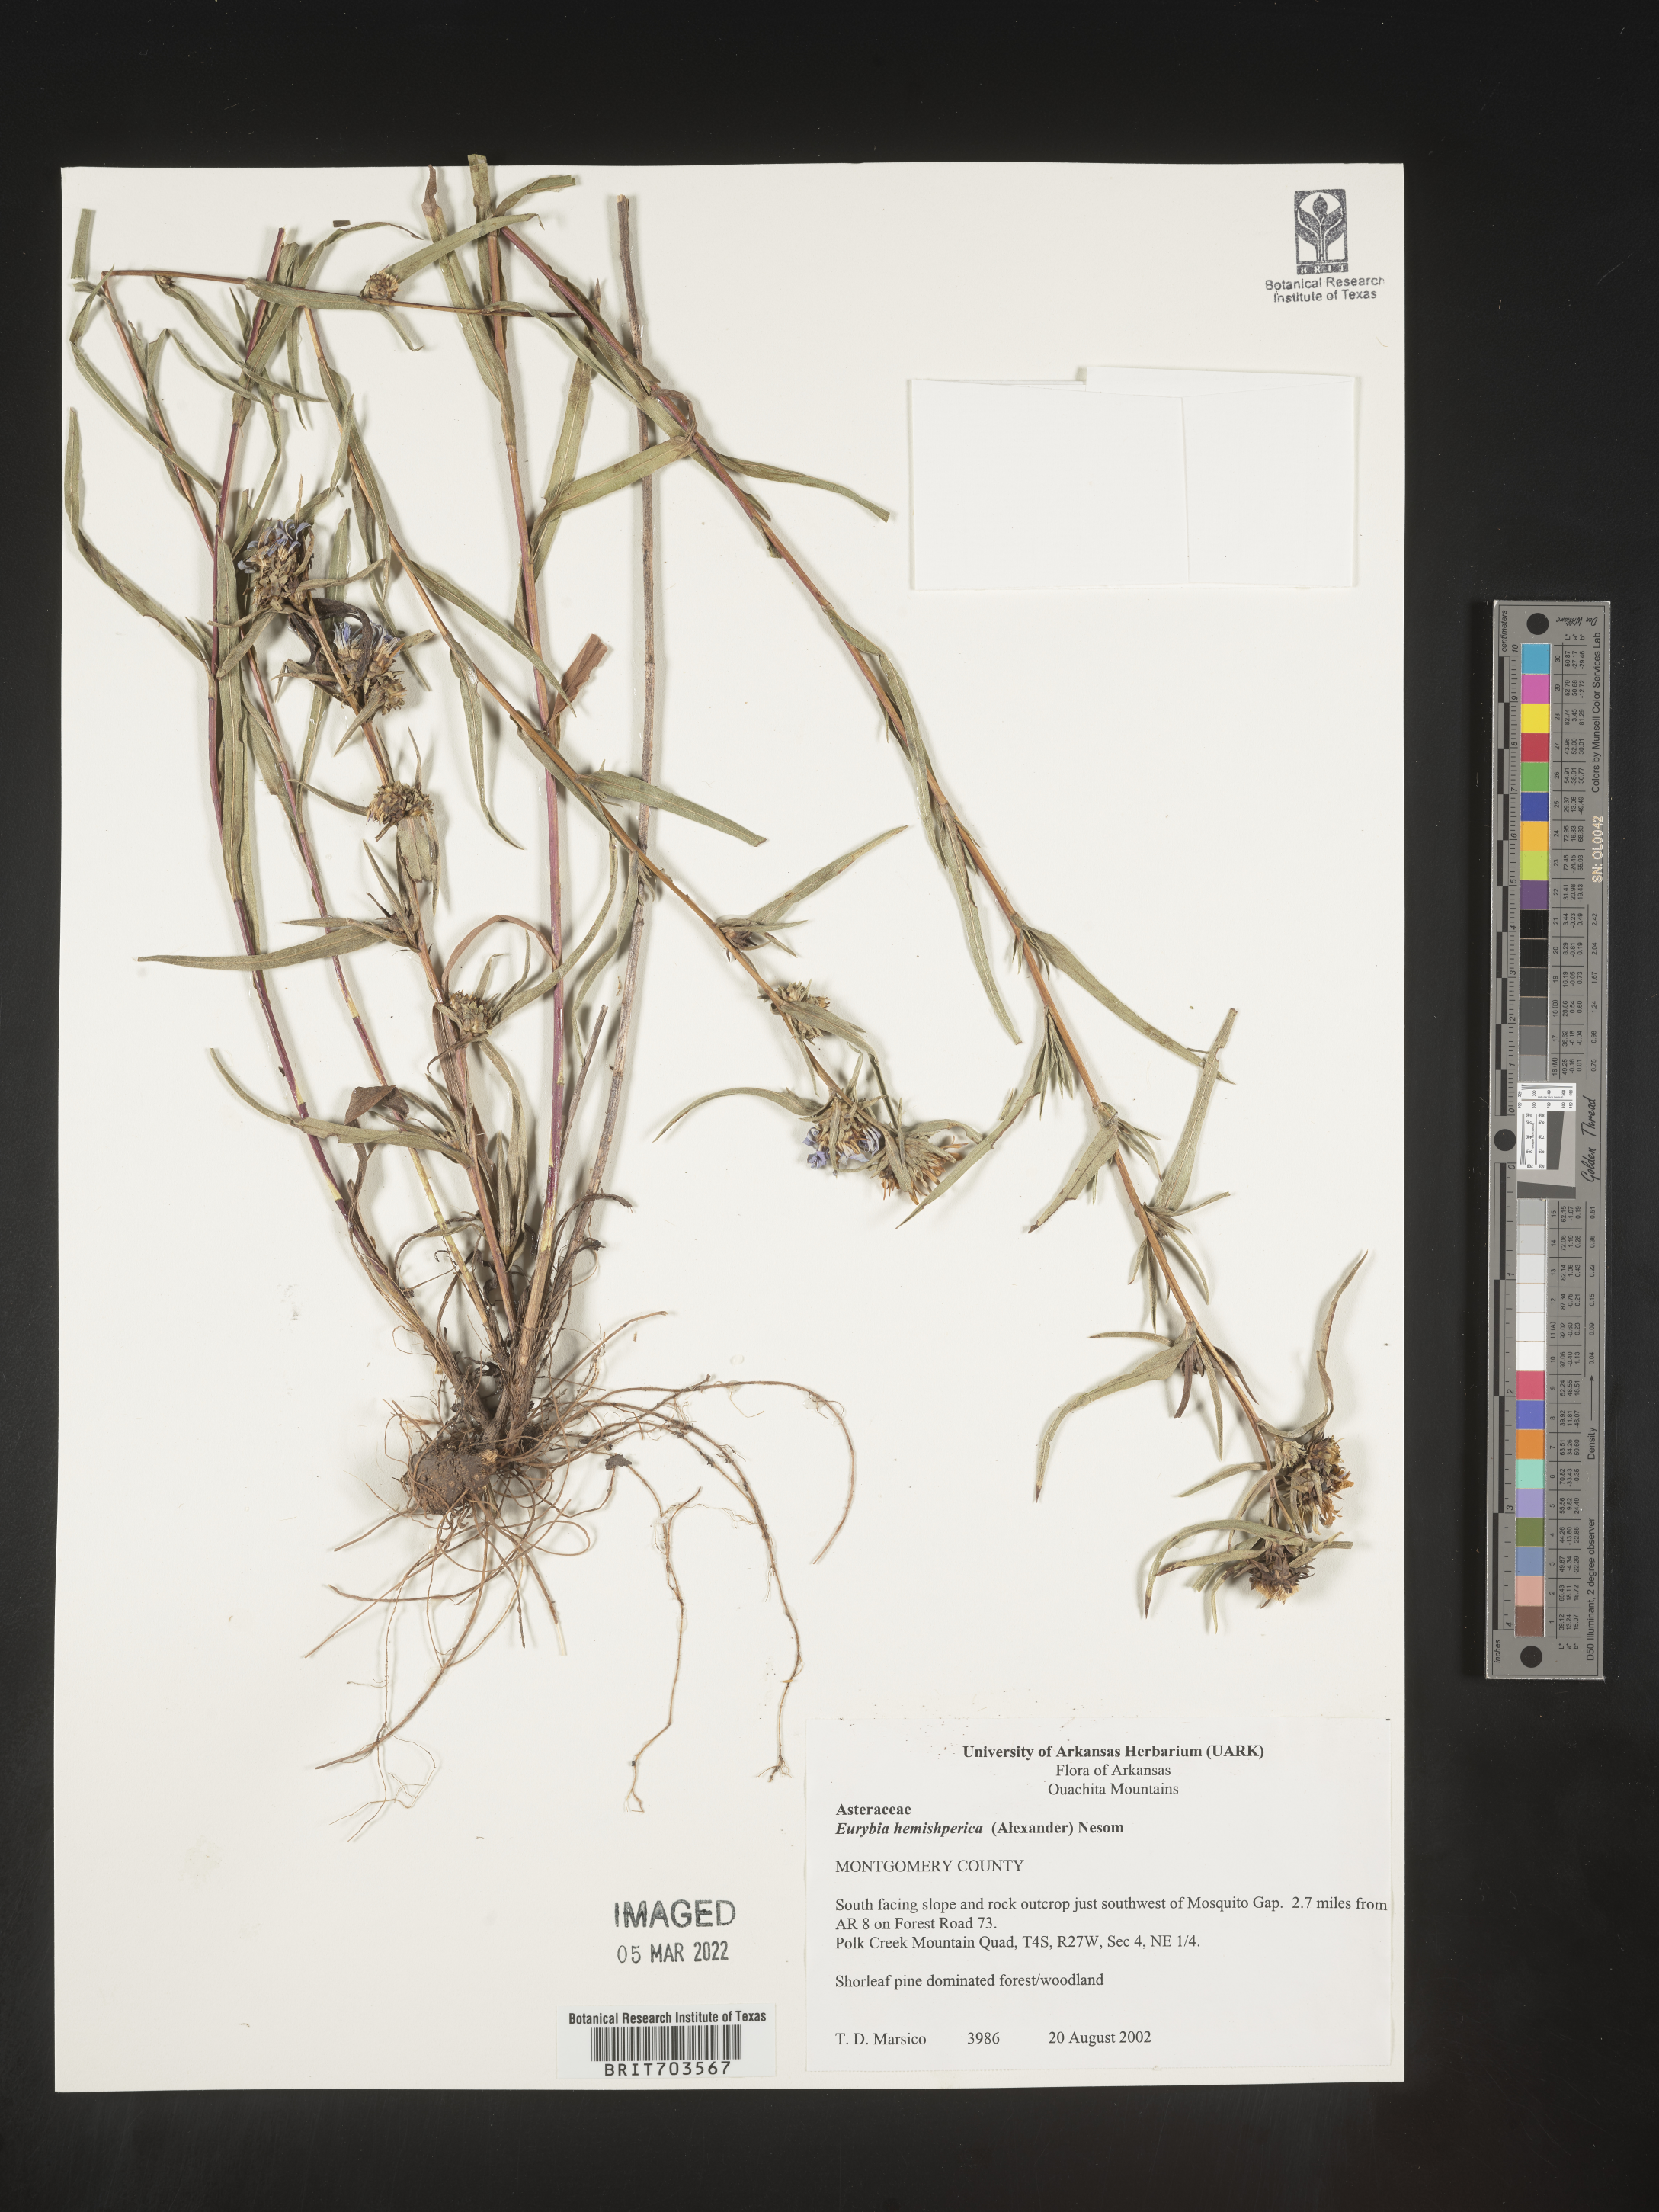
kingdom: Plantae
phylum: Tracheophyta
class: Magnoliopsida
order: Asterales
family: Asteraceae
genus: Eurybia
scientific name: Eurybia hemispherica
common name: Showy aster
